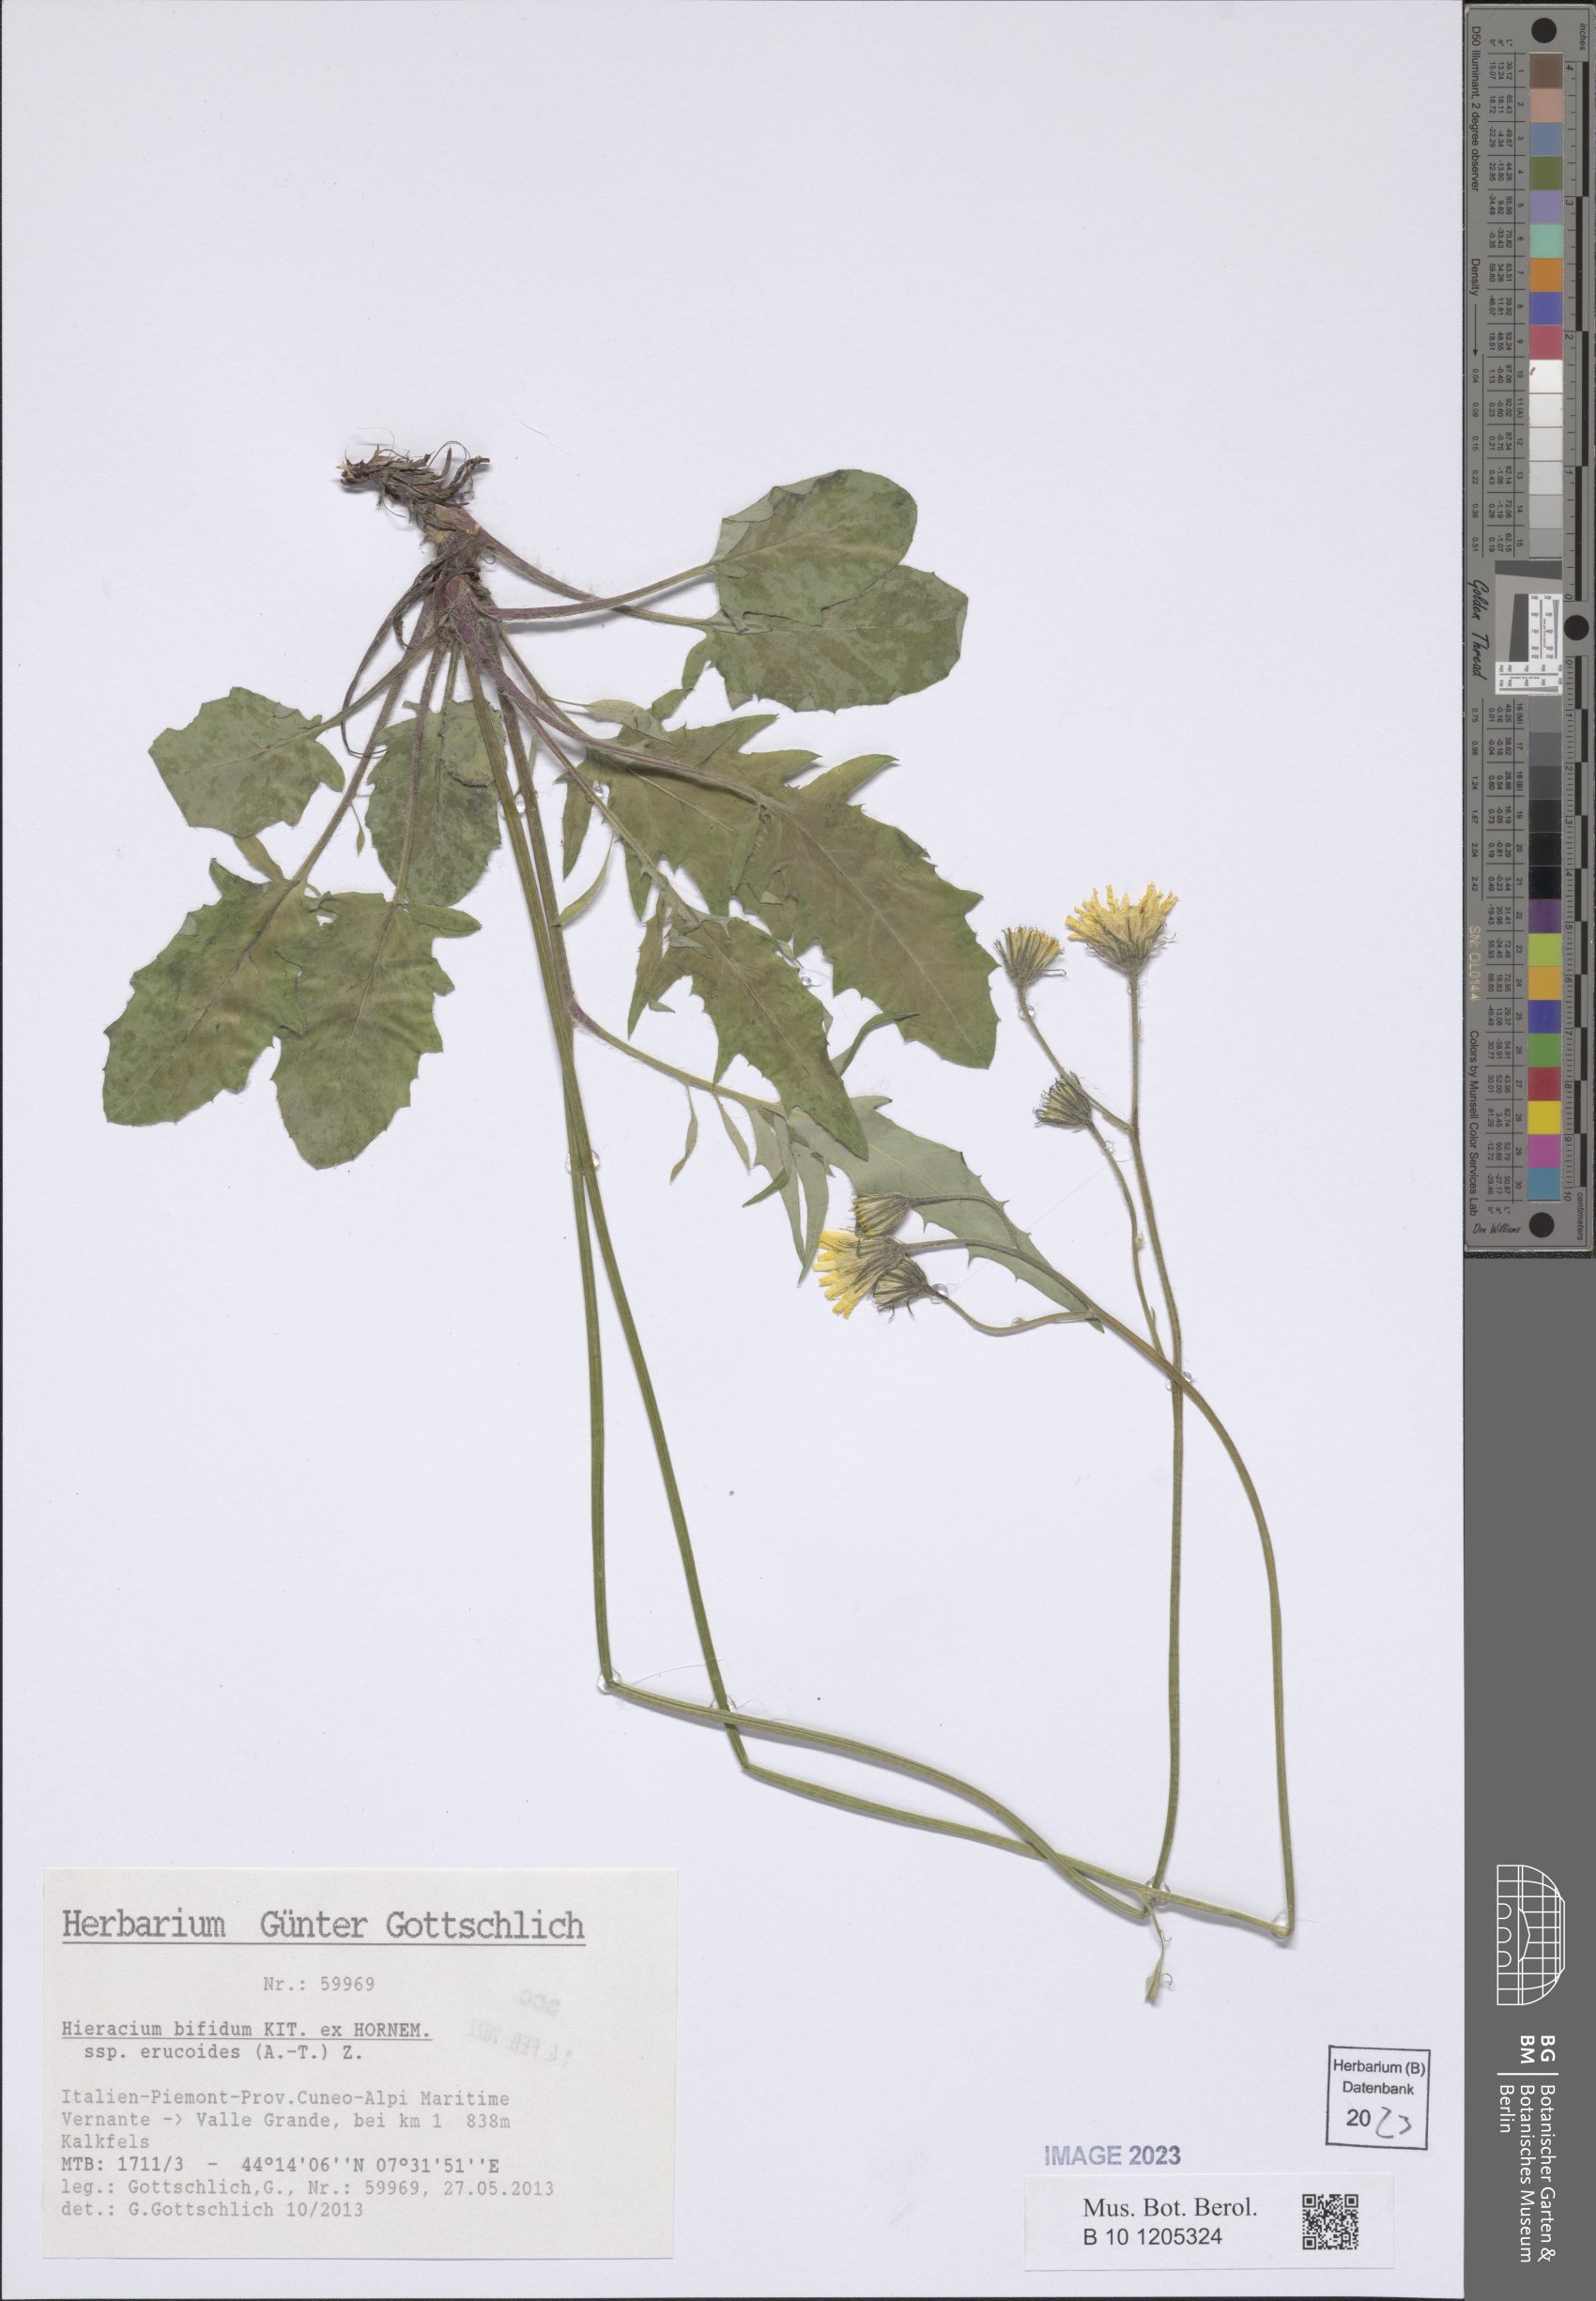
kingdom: Plantae
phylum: Tracheophyta
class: Magnoliopsida
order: Asterales
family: Asteraceae
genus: Hieracium
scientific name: Hieracium bifidum
